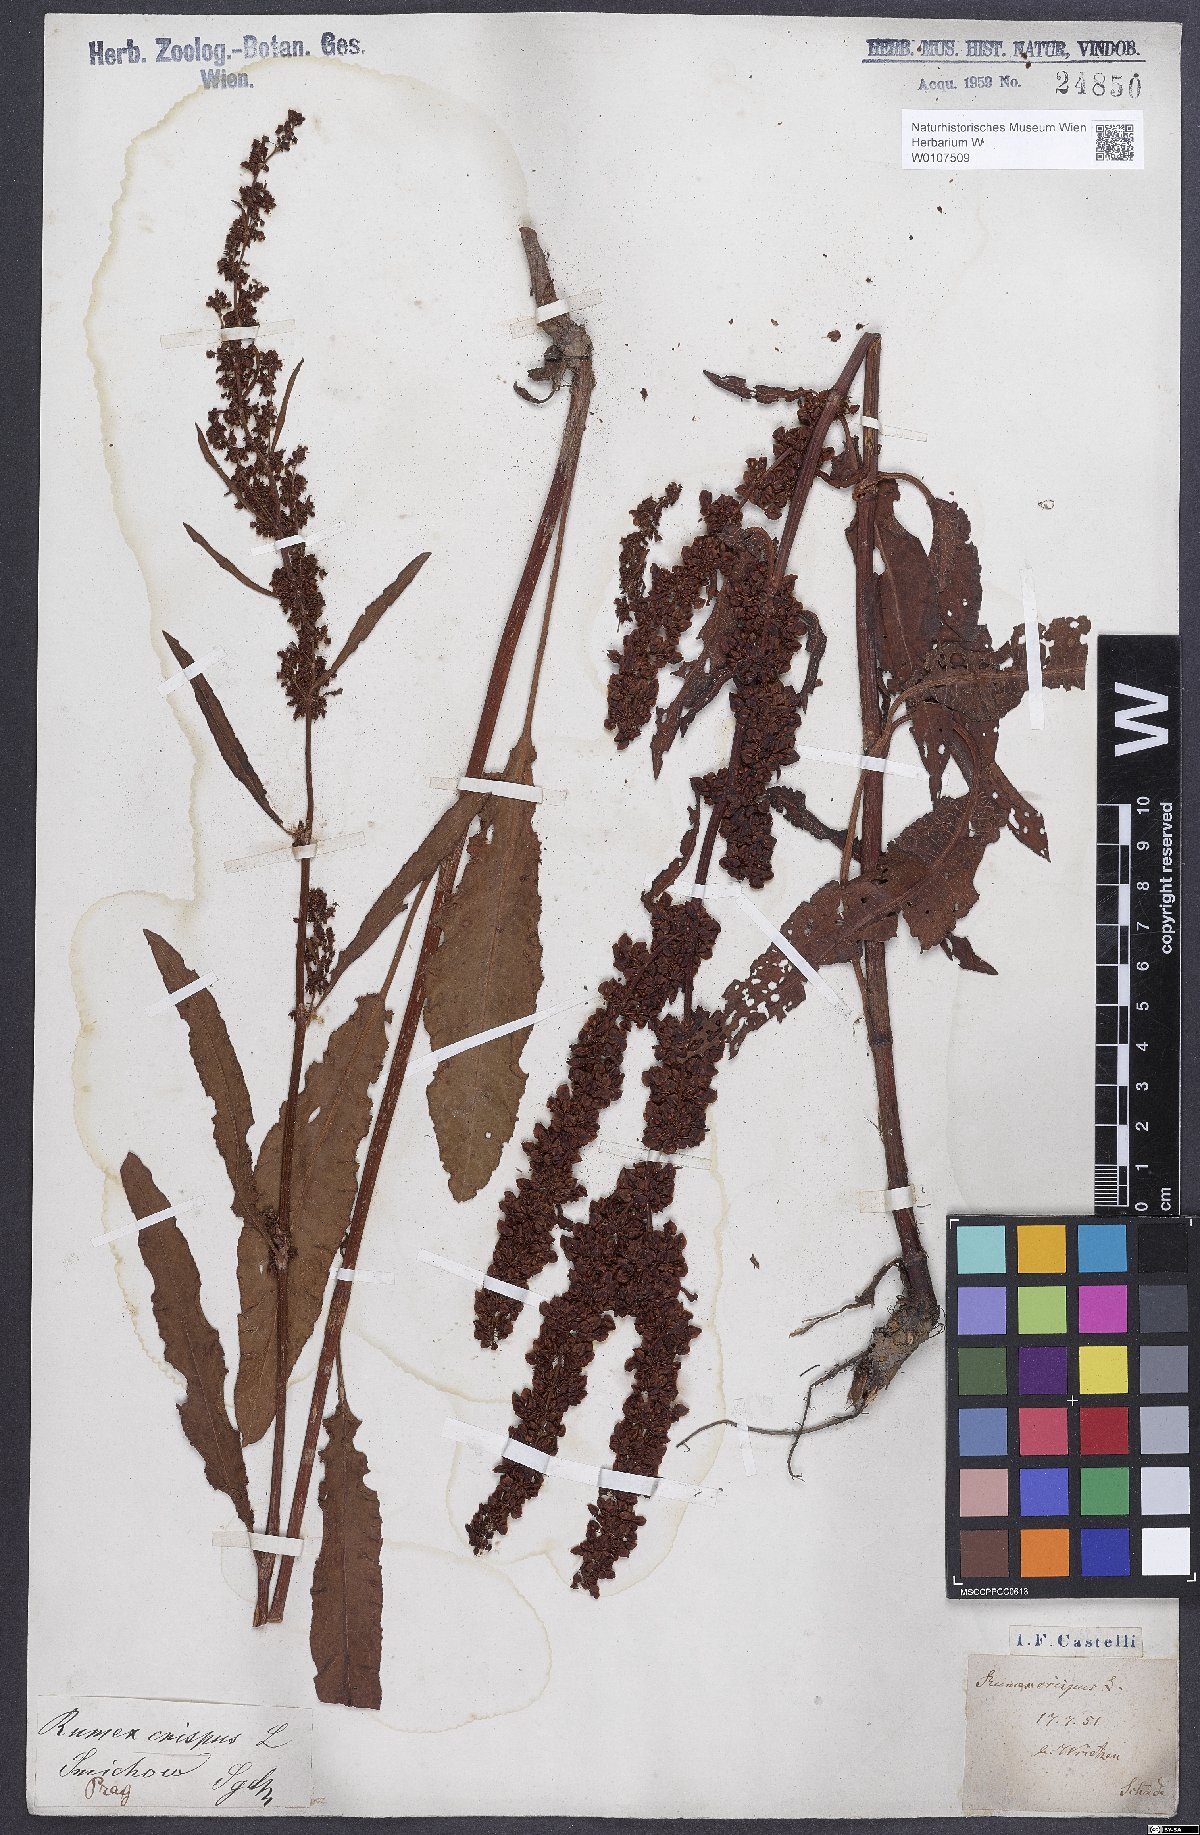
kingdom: Plantae
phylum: Tracheophyta
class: Magnoliopsida
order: Caryophyllales
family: Polygonaceae
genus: Rumex
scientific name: Rumex crispus
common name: Curled dock
